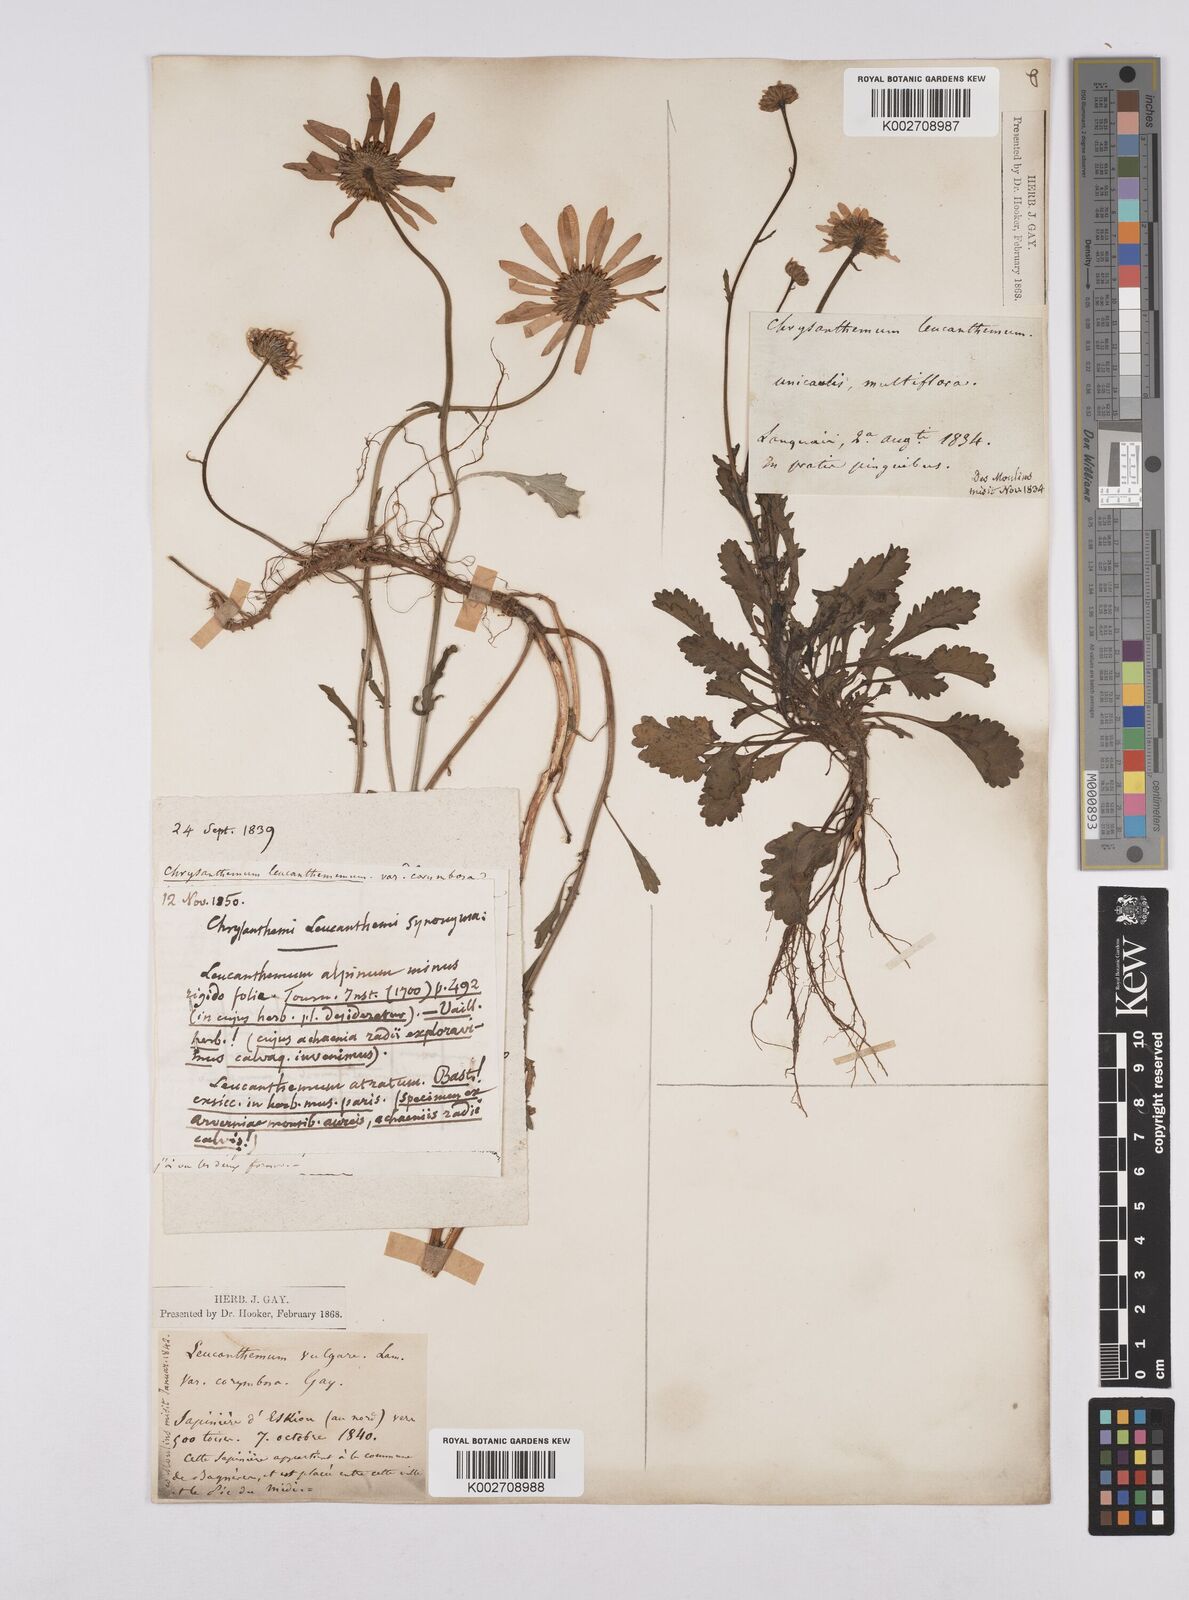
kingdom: Plantae
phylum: Tracheophyta
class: Magnoliopsida
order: Asterales
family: Asteraceae
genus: Leucanthemum
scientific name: Leucanthemum vulgare
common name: Oxeye daisy
